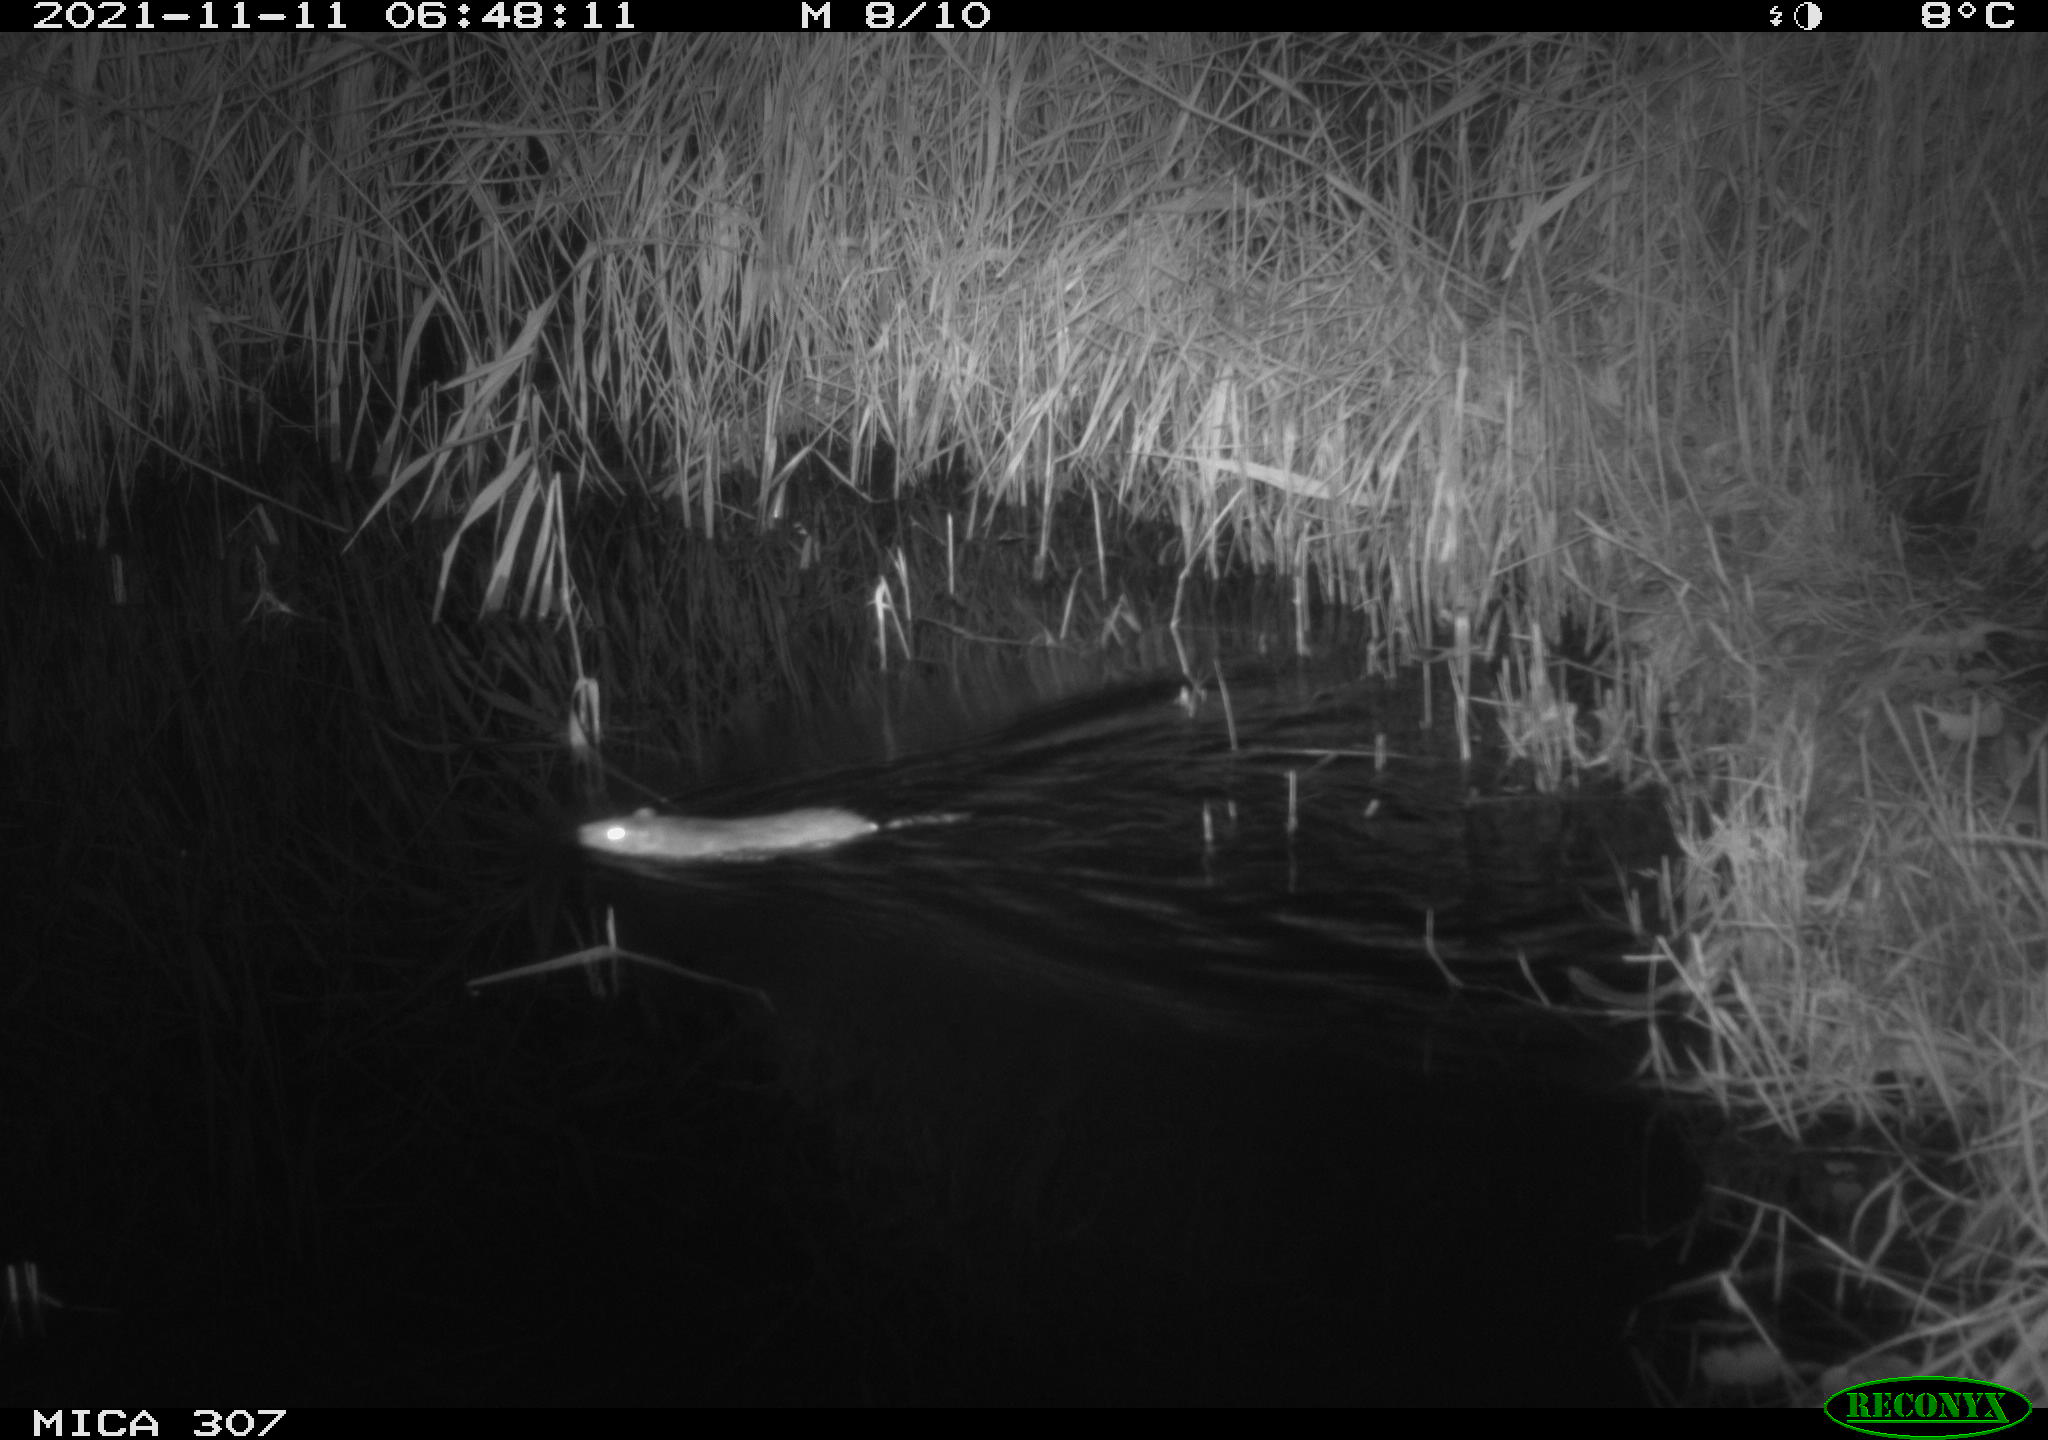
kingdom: Animalia
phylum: Chordata
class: Mammalia
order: Rodentia
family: Muridae
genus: Rattus
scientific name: Rattus norvegicus
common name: Brown rat
